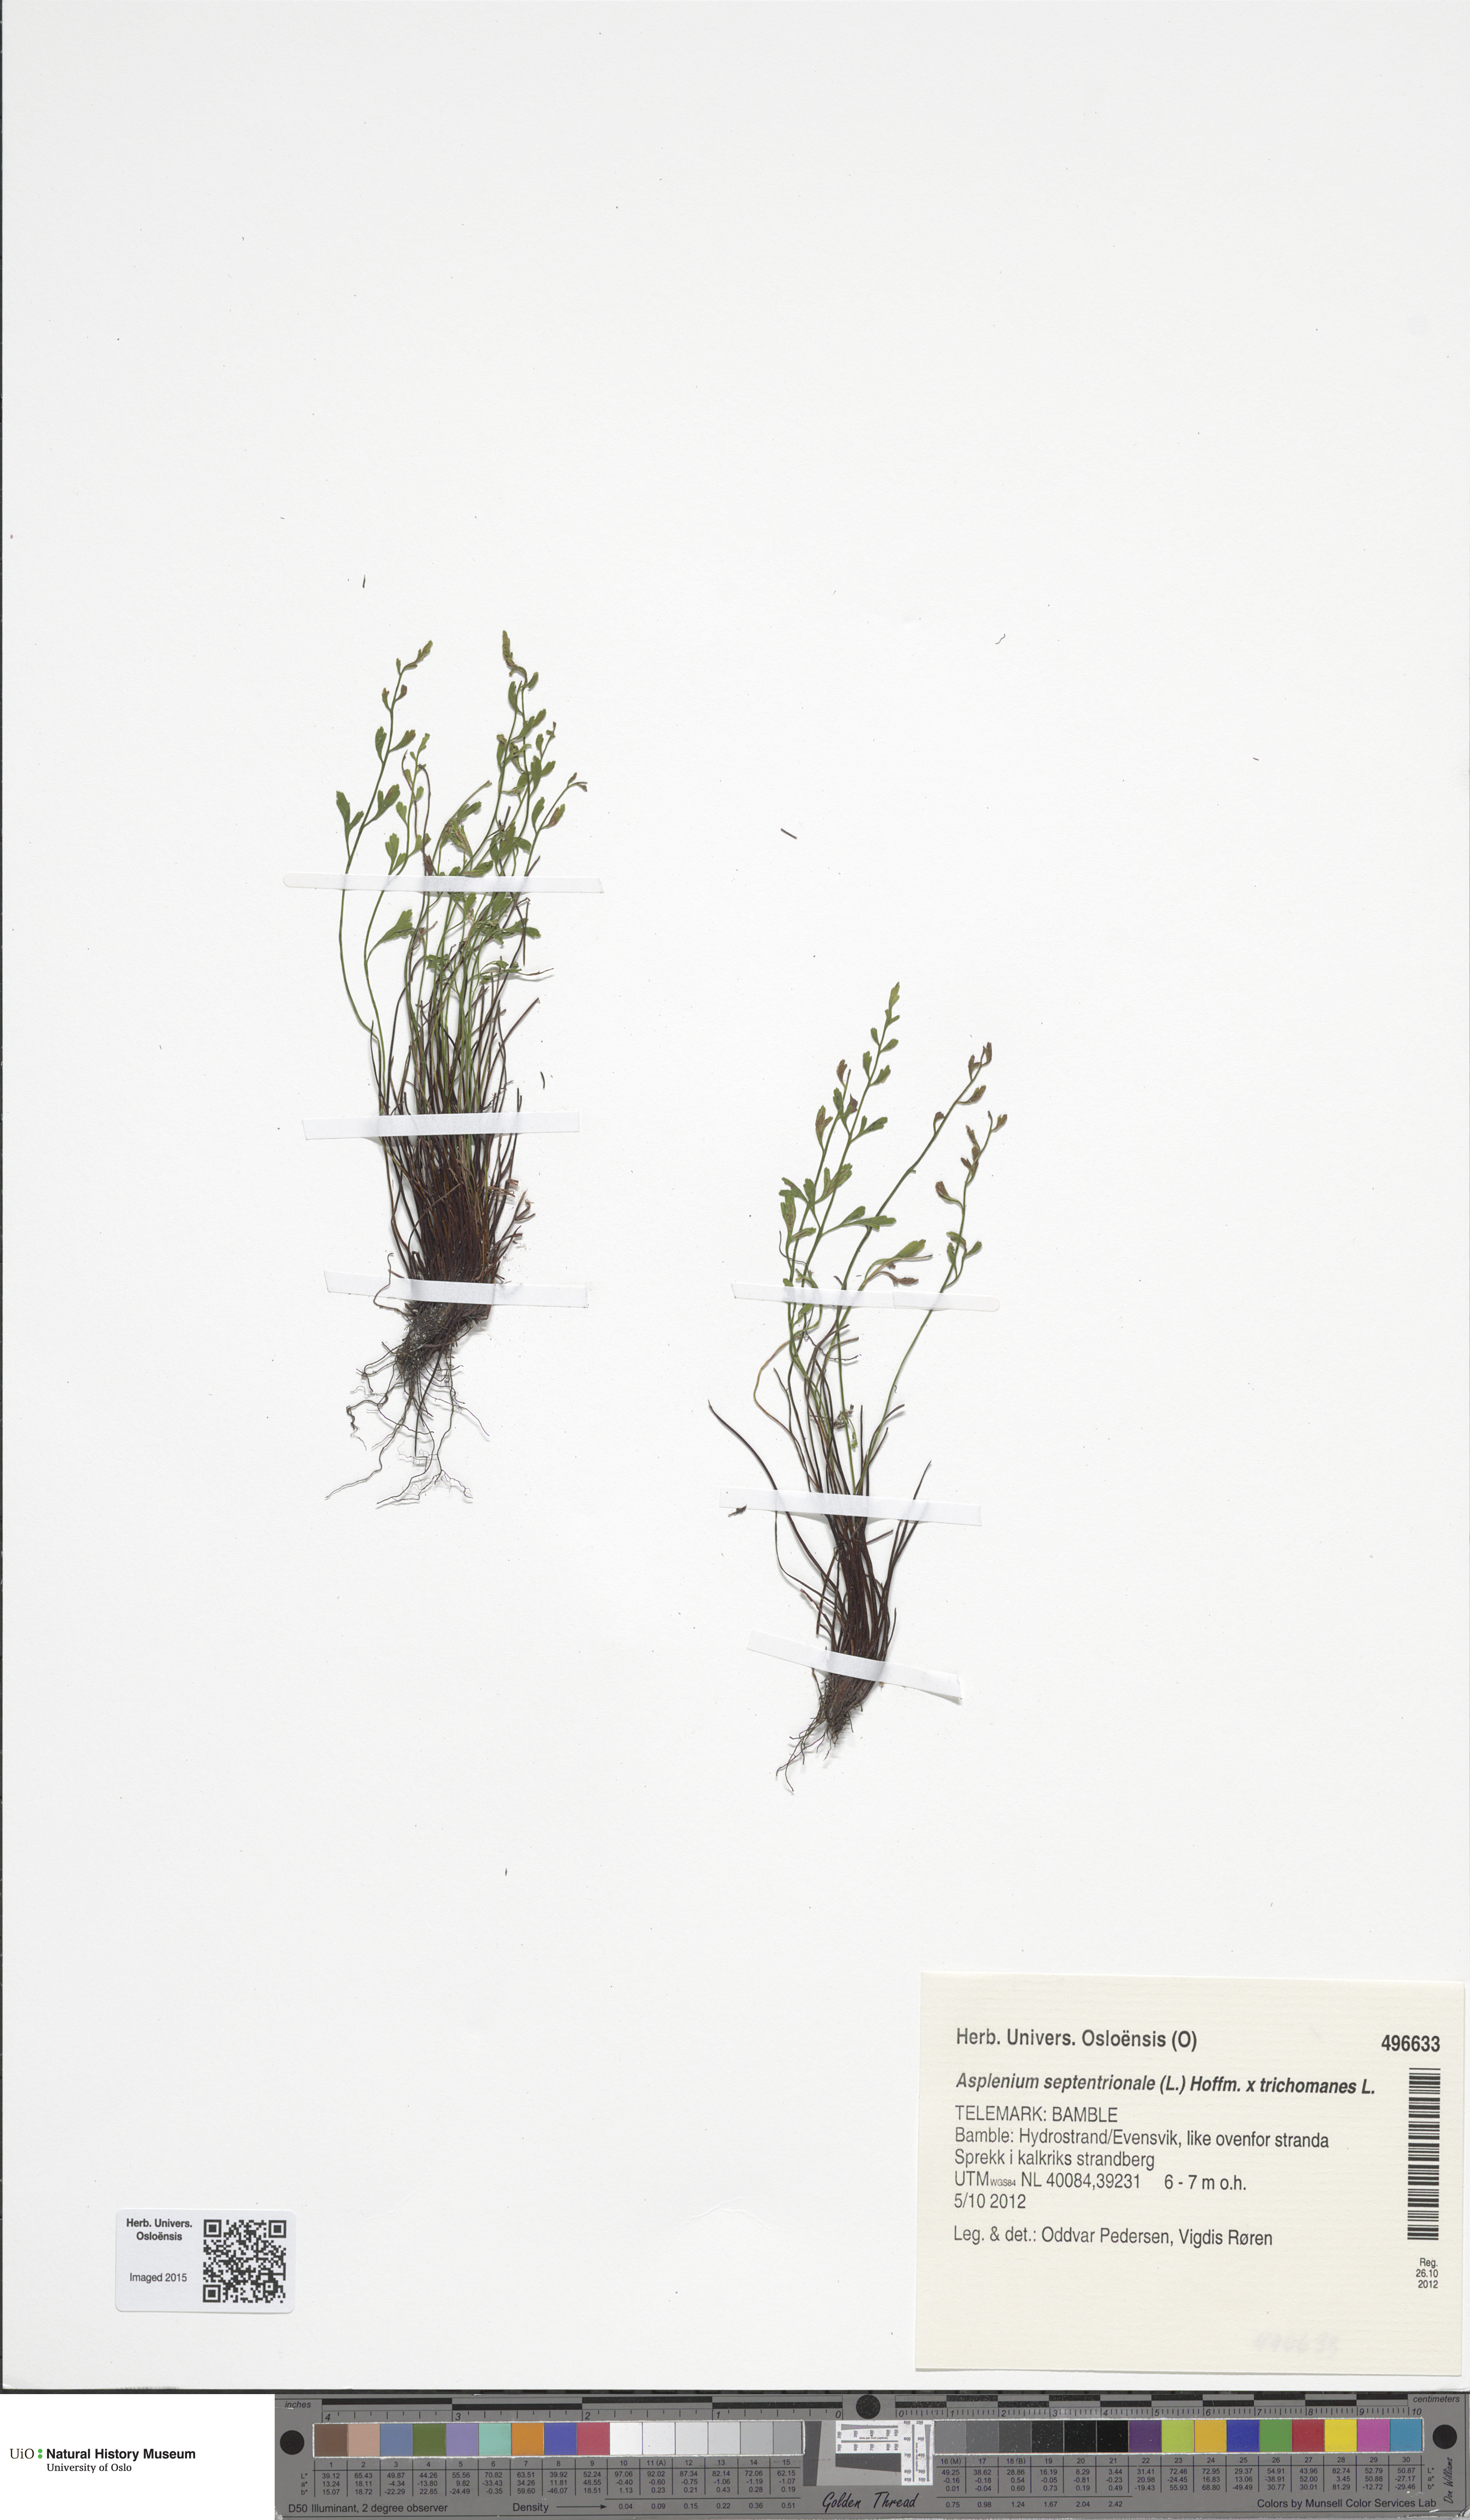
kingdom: Plantae
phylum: Tracheophyta
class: Polypodiopsida
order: Polypodiales
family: Aspleniaceae
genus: Asplenium
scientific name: Asplenium
